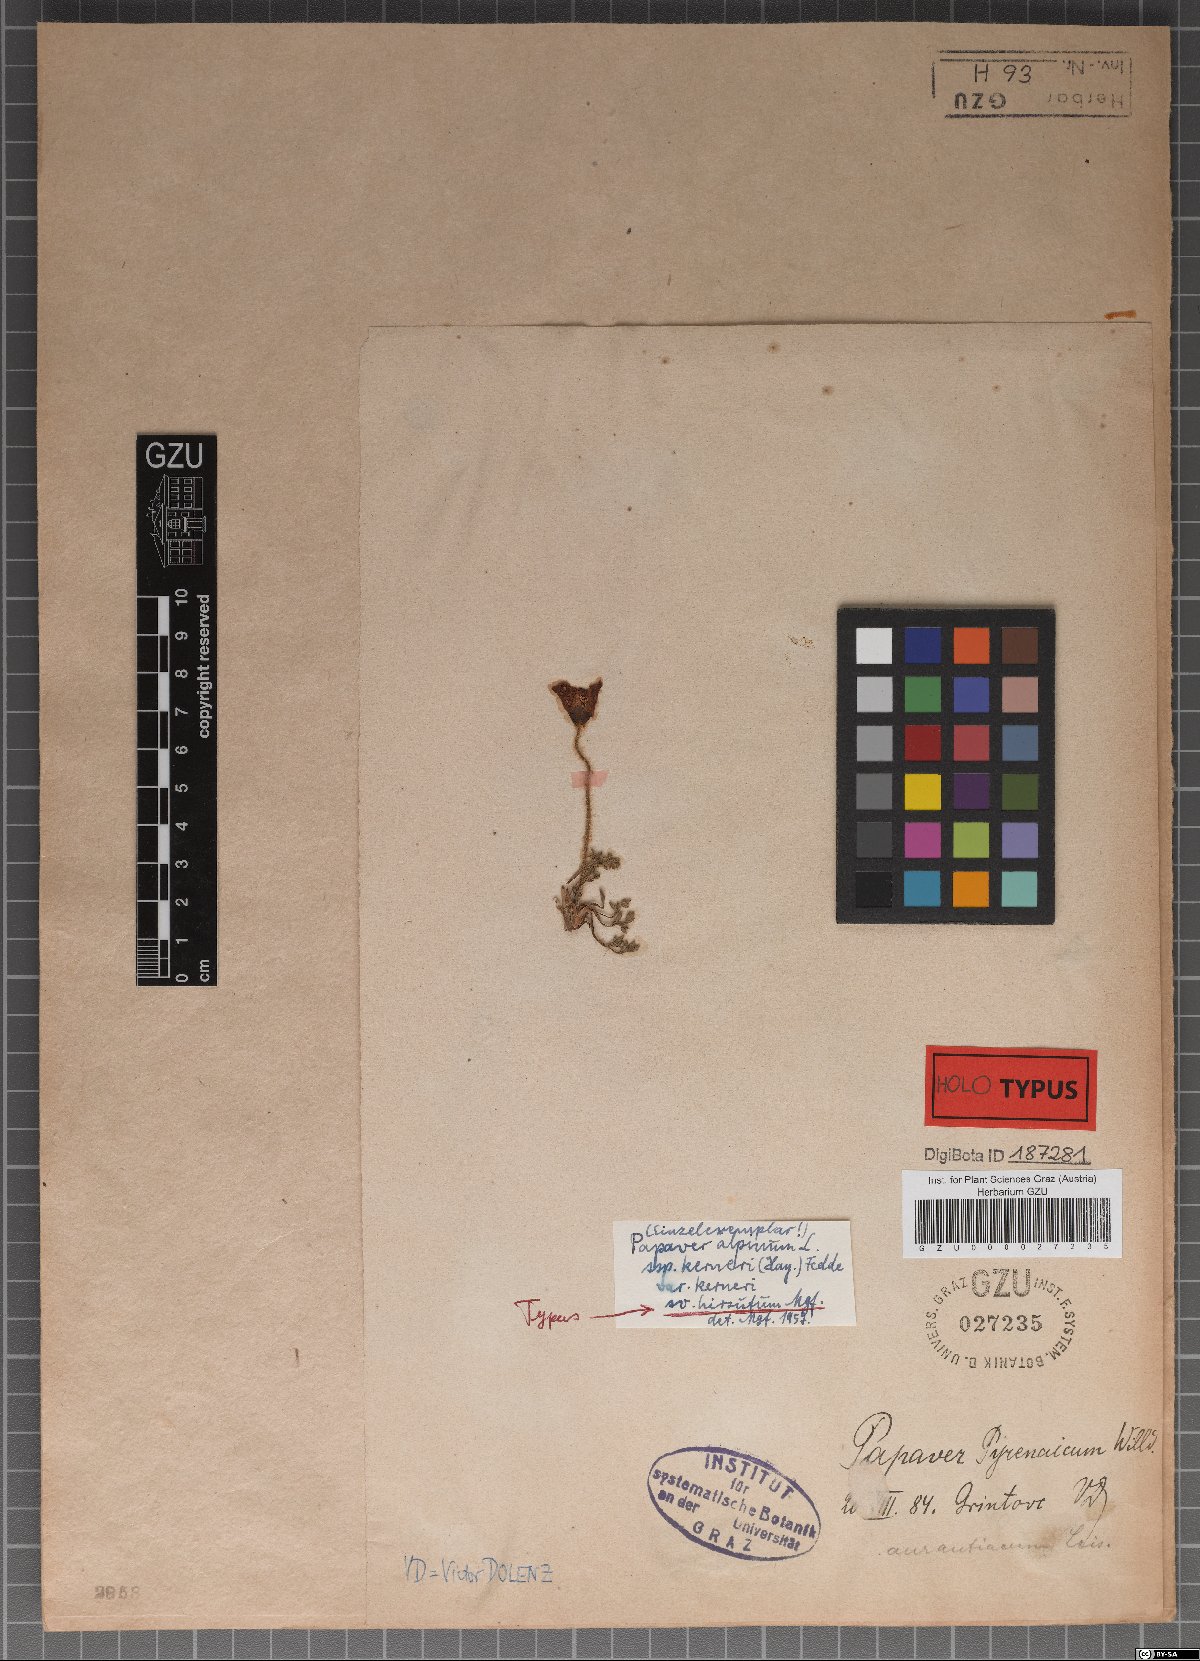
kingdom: Plantae
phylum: Tracheophyta
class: Magnoliopsida
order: Ranunculales
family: Papaveraceae
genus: Papaver
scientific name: Papaver nudicaule
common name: Arctic poppy
